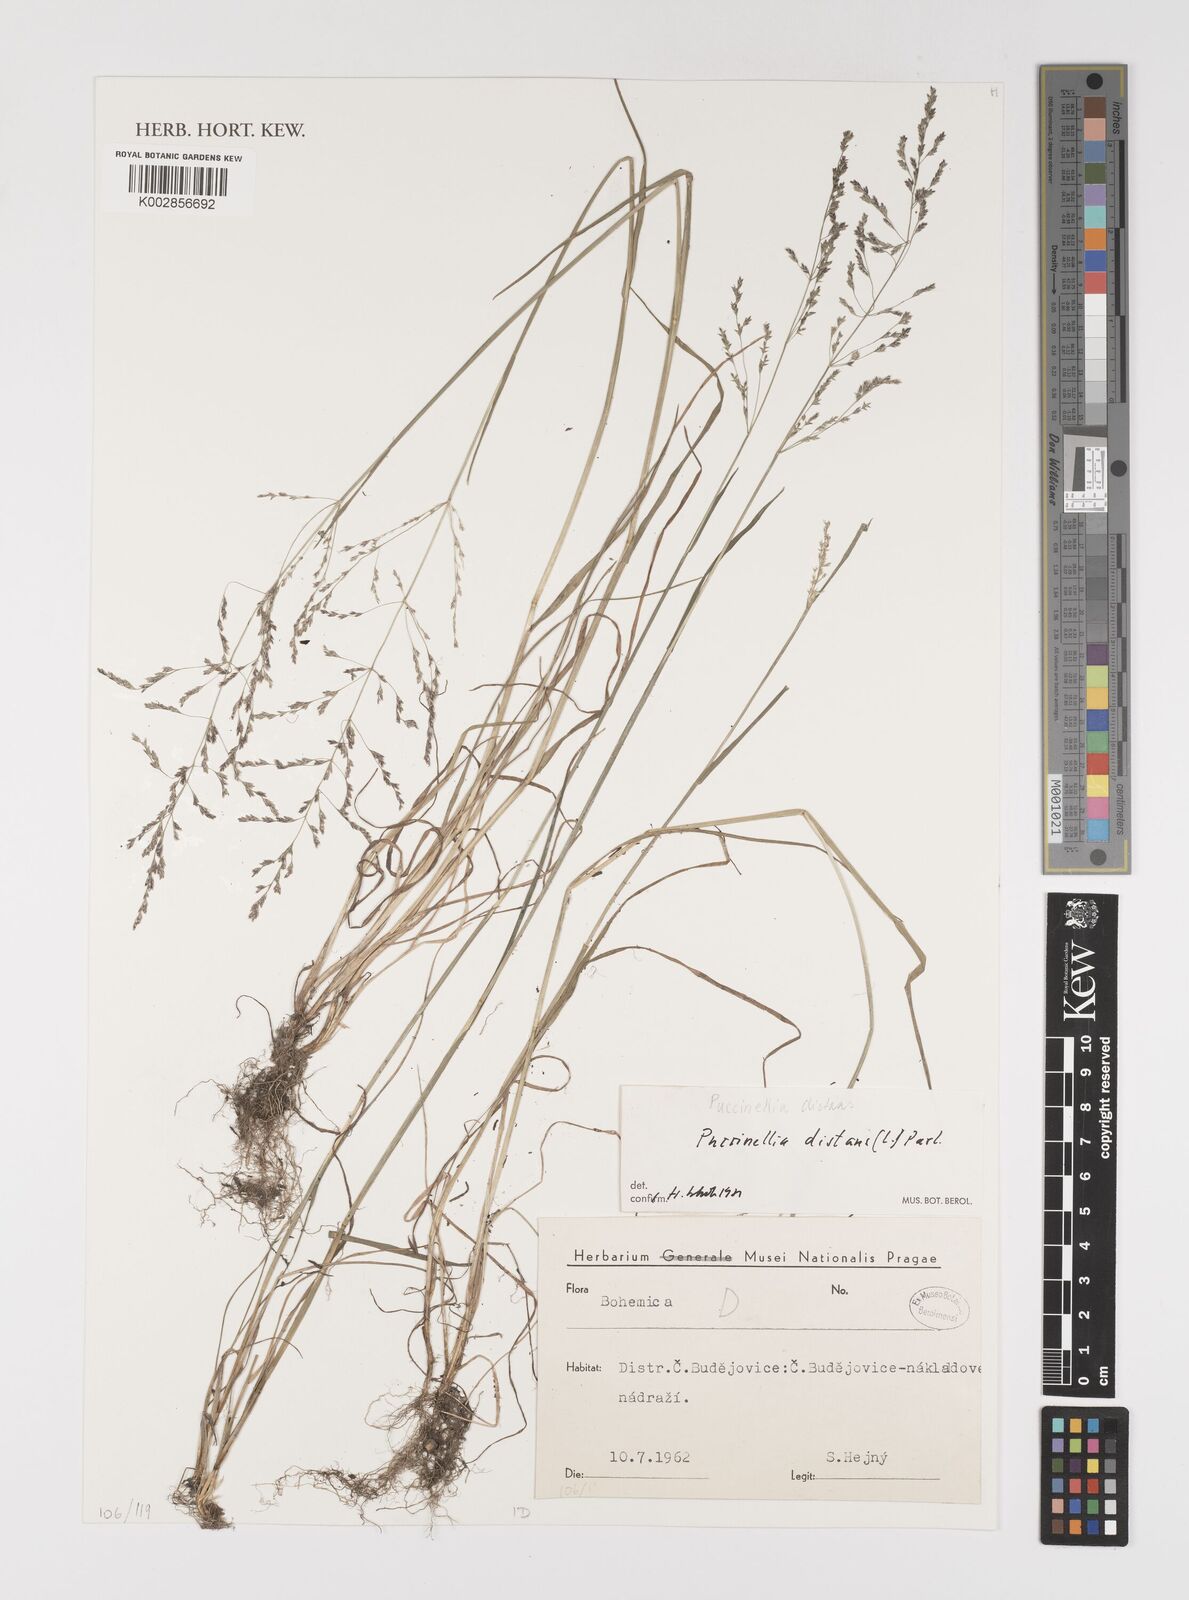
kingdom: Plantae
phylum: Tracheophyta
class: Liliopsida
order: Poales
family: Poaceae
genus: Puccinellia
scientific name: Puccinellia distans
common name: Weeping alkaligrass
